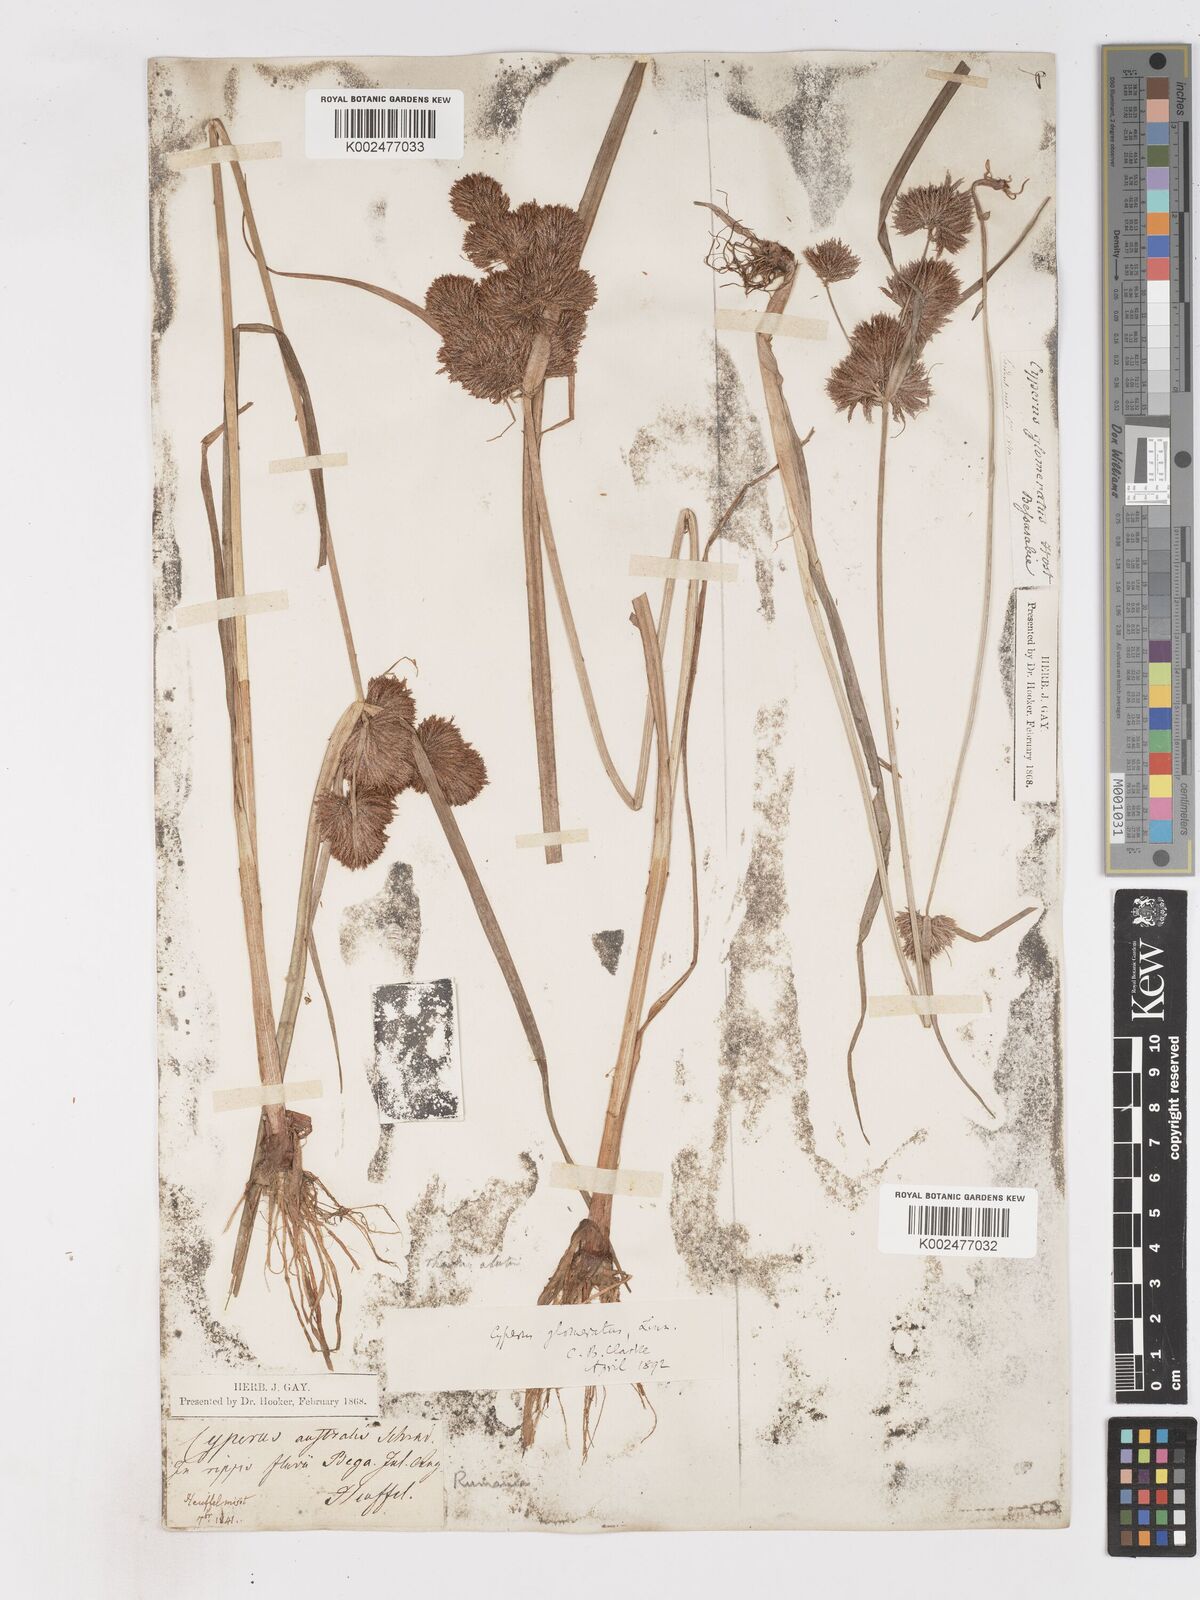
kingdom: Plantae
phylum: Tracheophyta
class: Liliopsida
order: Poales
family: Cyperaceae
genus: Cyperus
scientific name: Cyperus glomeratus
